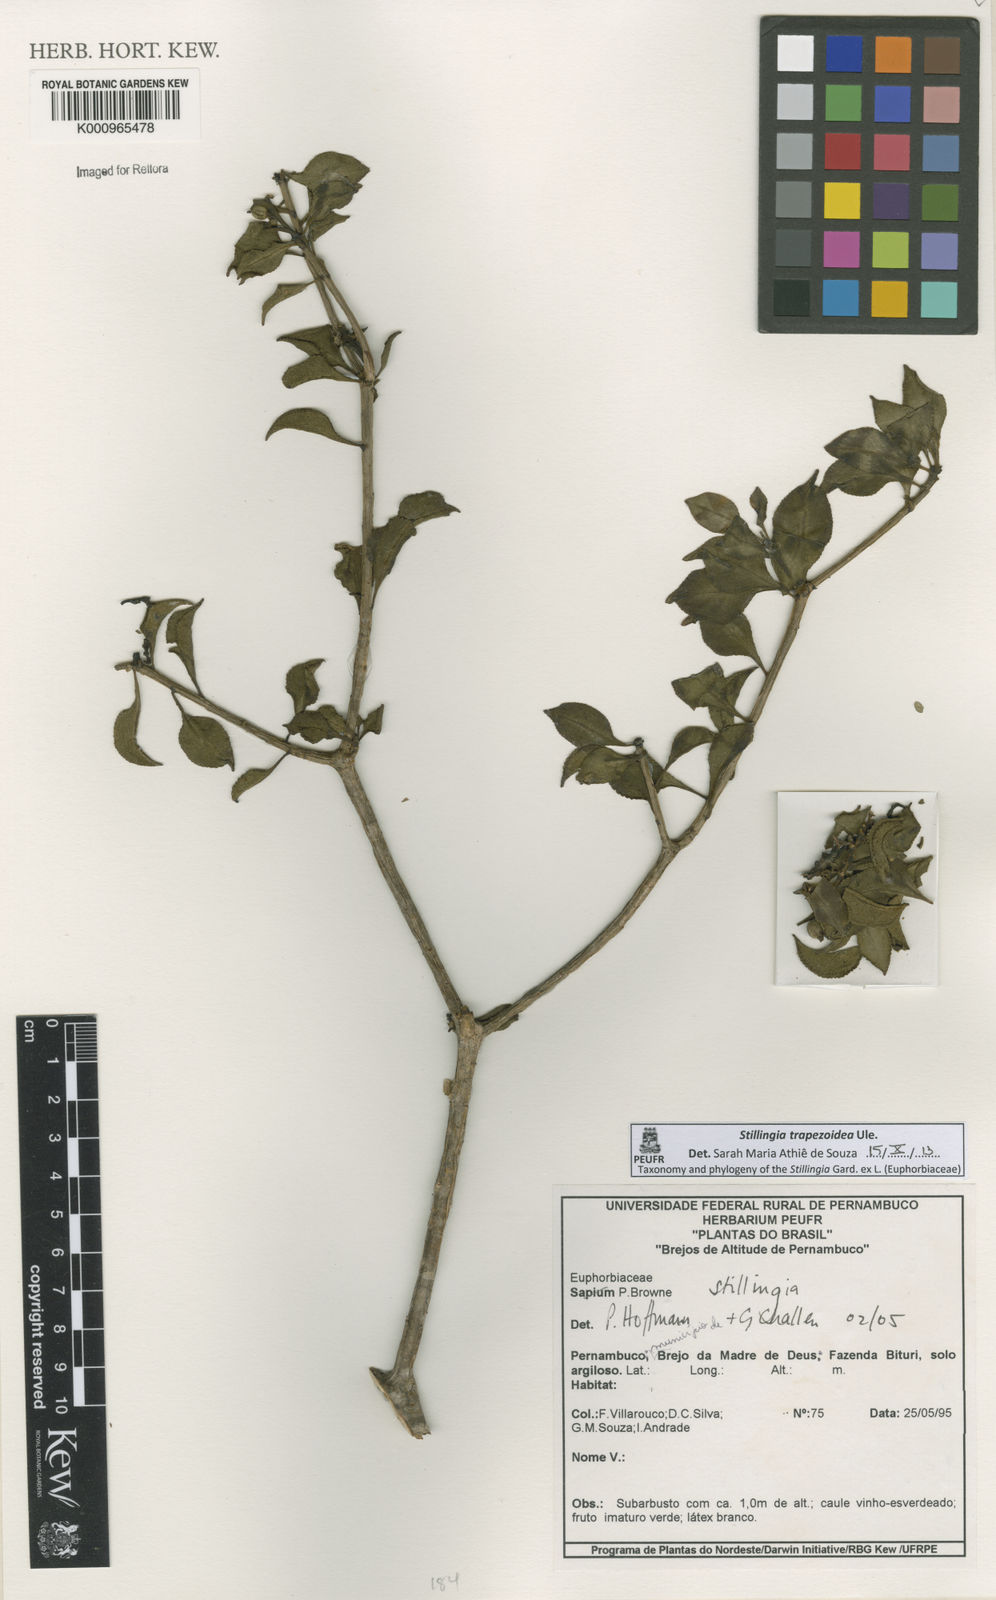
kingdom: Plantae
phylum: Tracheophyta
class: Magnoliopsida
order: Malpighiales
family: Euphorbiaceae
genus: Stillingia
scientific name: Stillingia trapezoidea
